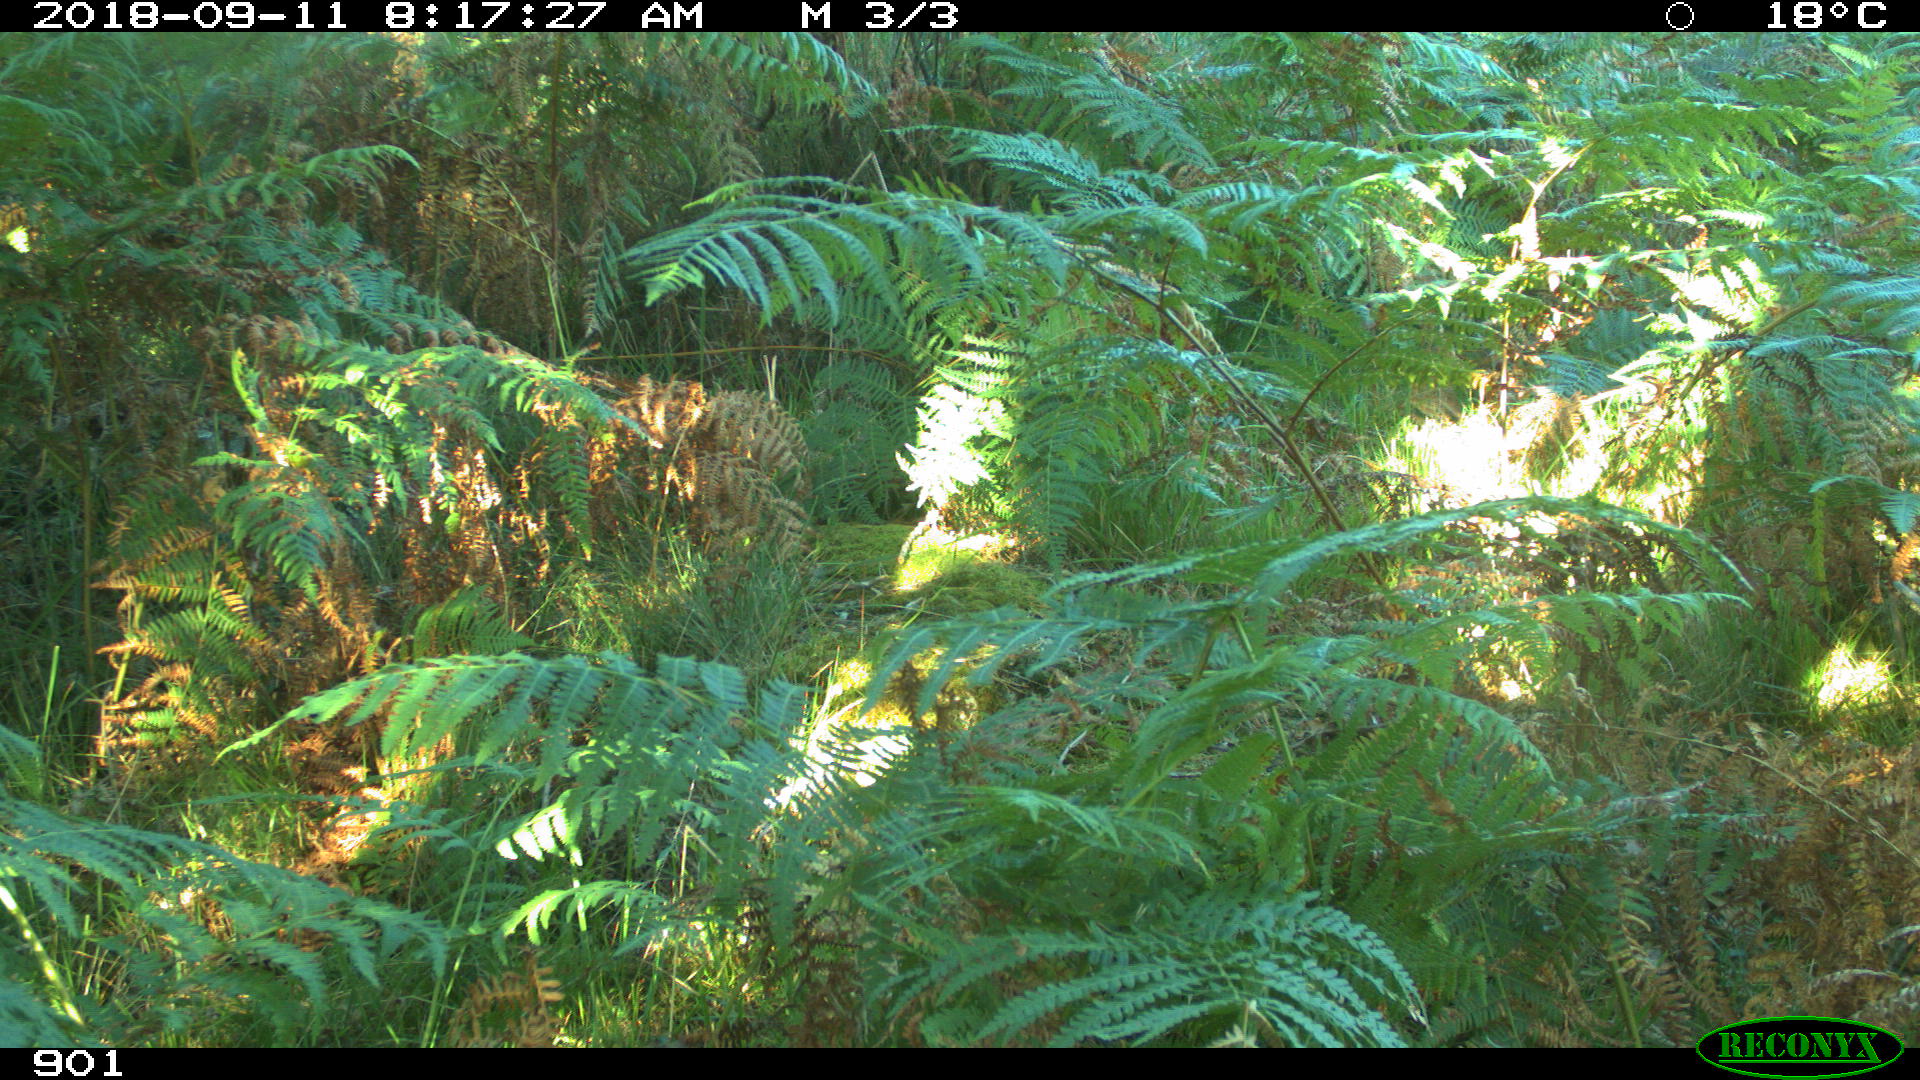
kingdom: Animalia
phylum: Chordata
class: Mammalia
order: Artiodactyla
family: Cervidae
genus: Capreolus
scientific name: Capreolus capreolus
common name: Western roe deer
